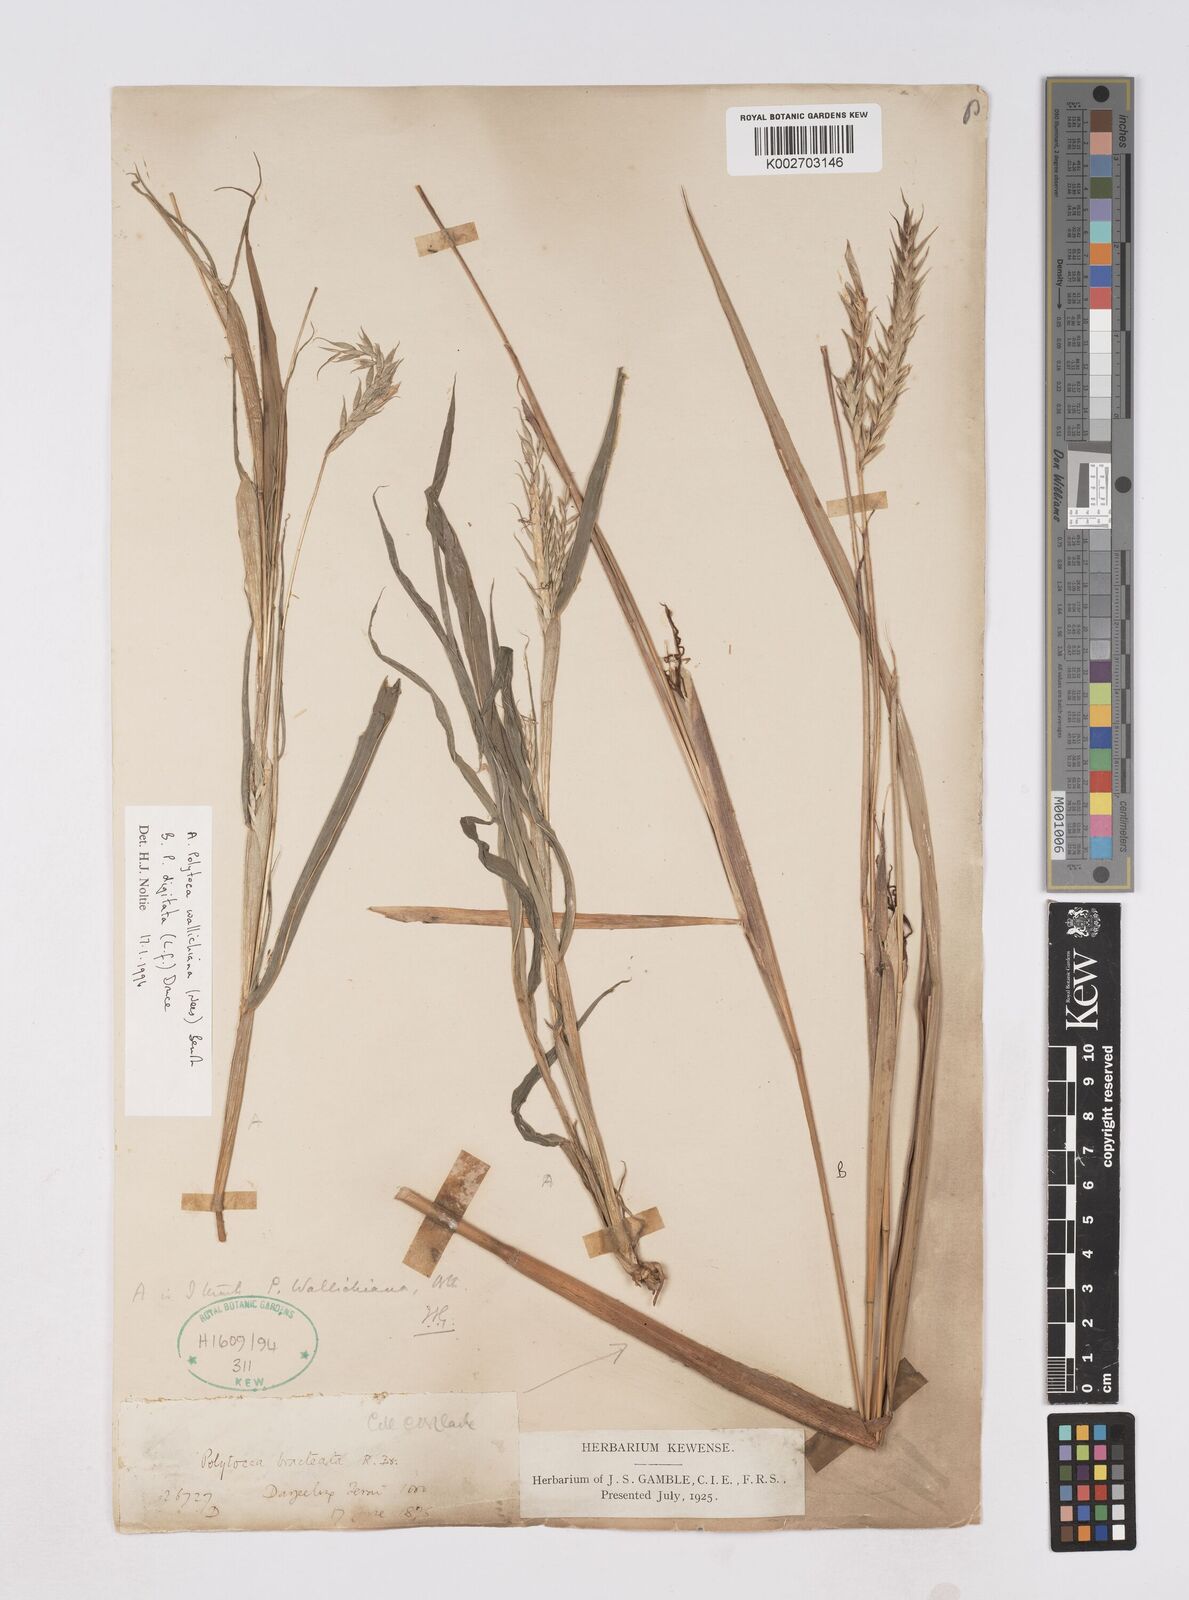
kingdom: Plantae
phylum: Tracheophyta
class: Liliopsida
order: Poales
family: Poaceae
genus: Polytoca
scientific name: Polytoca wallichiana
